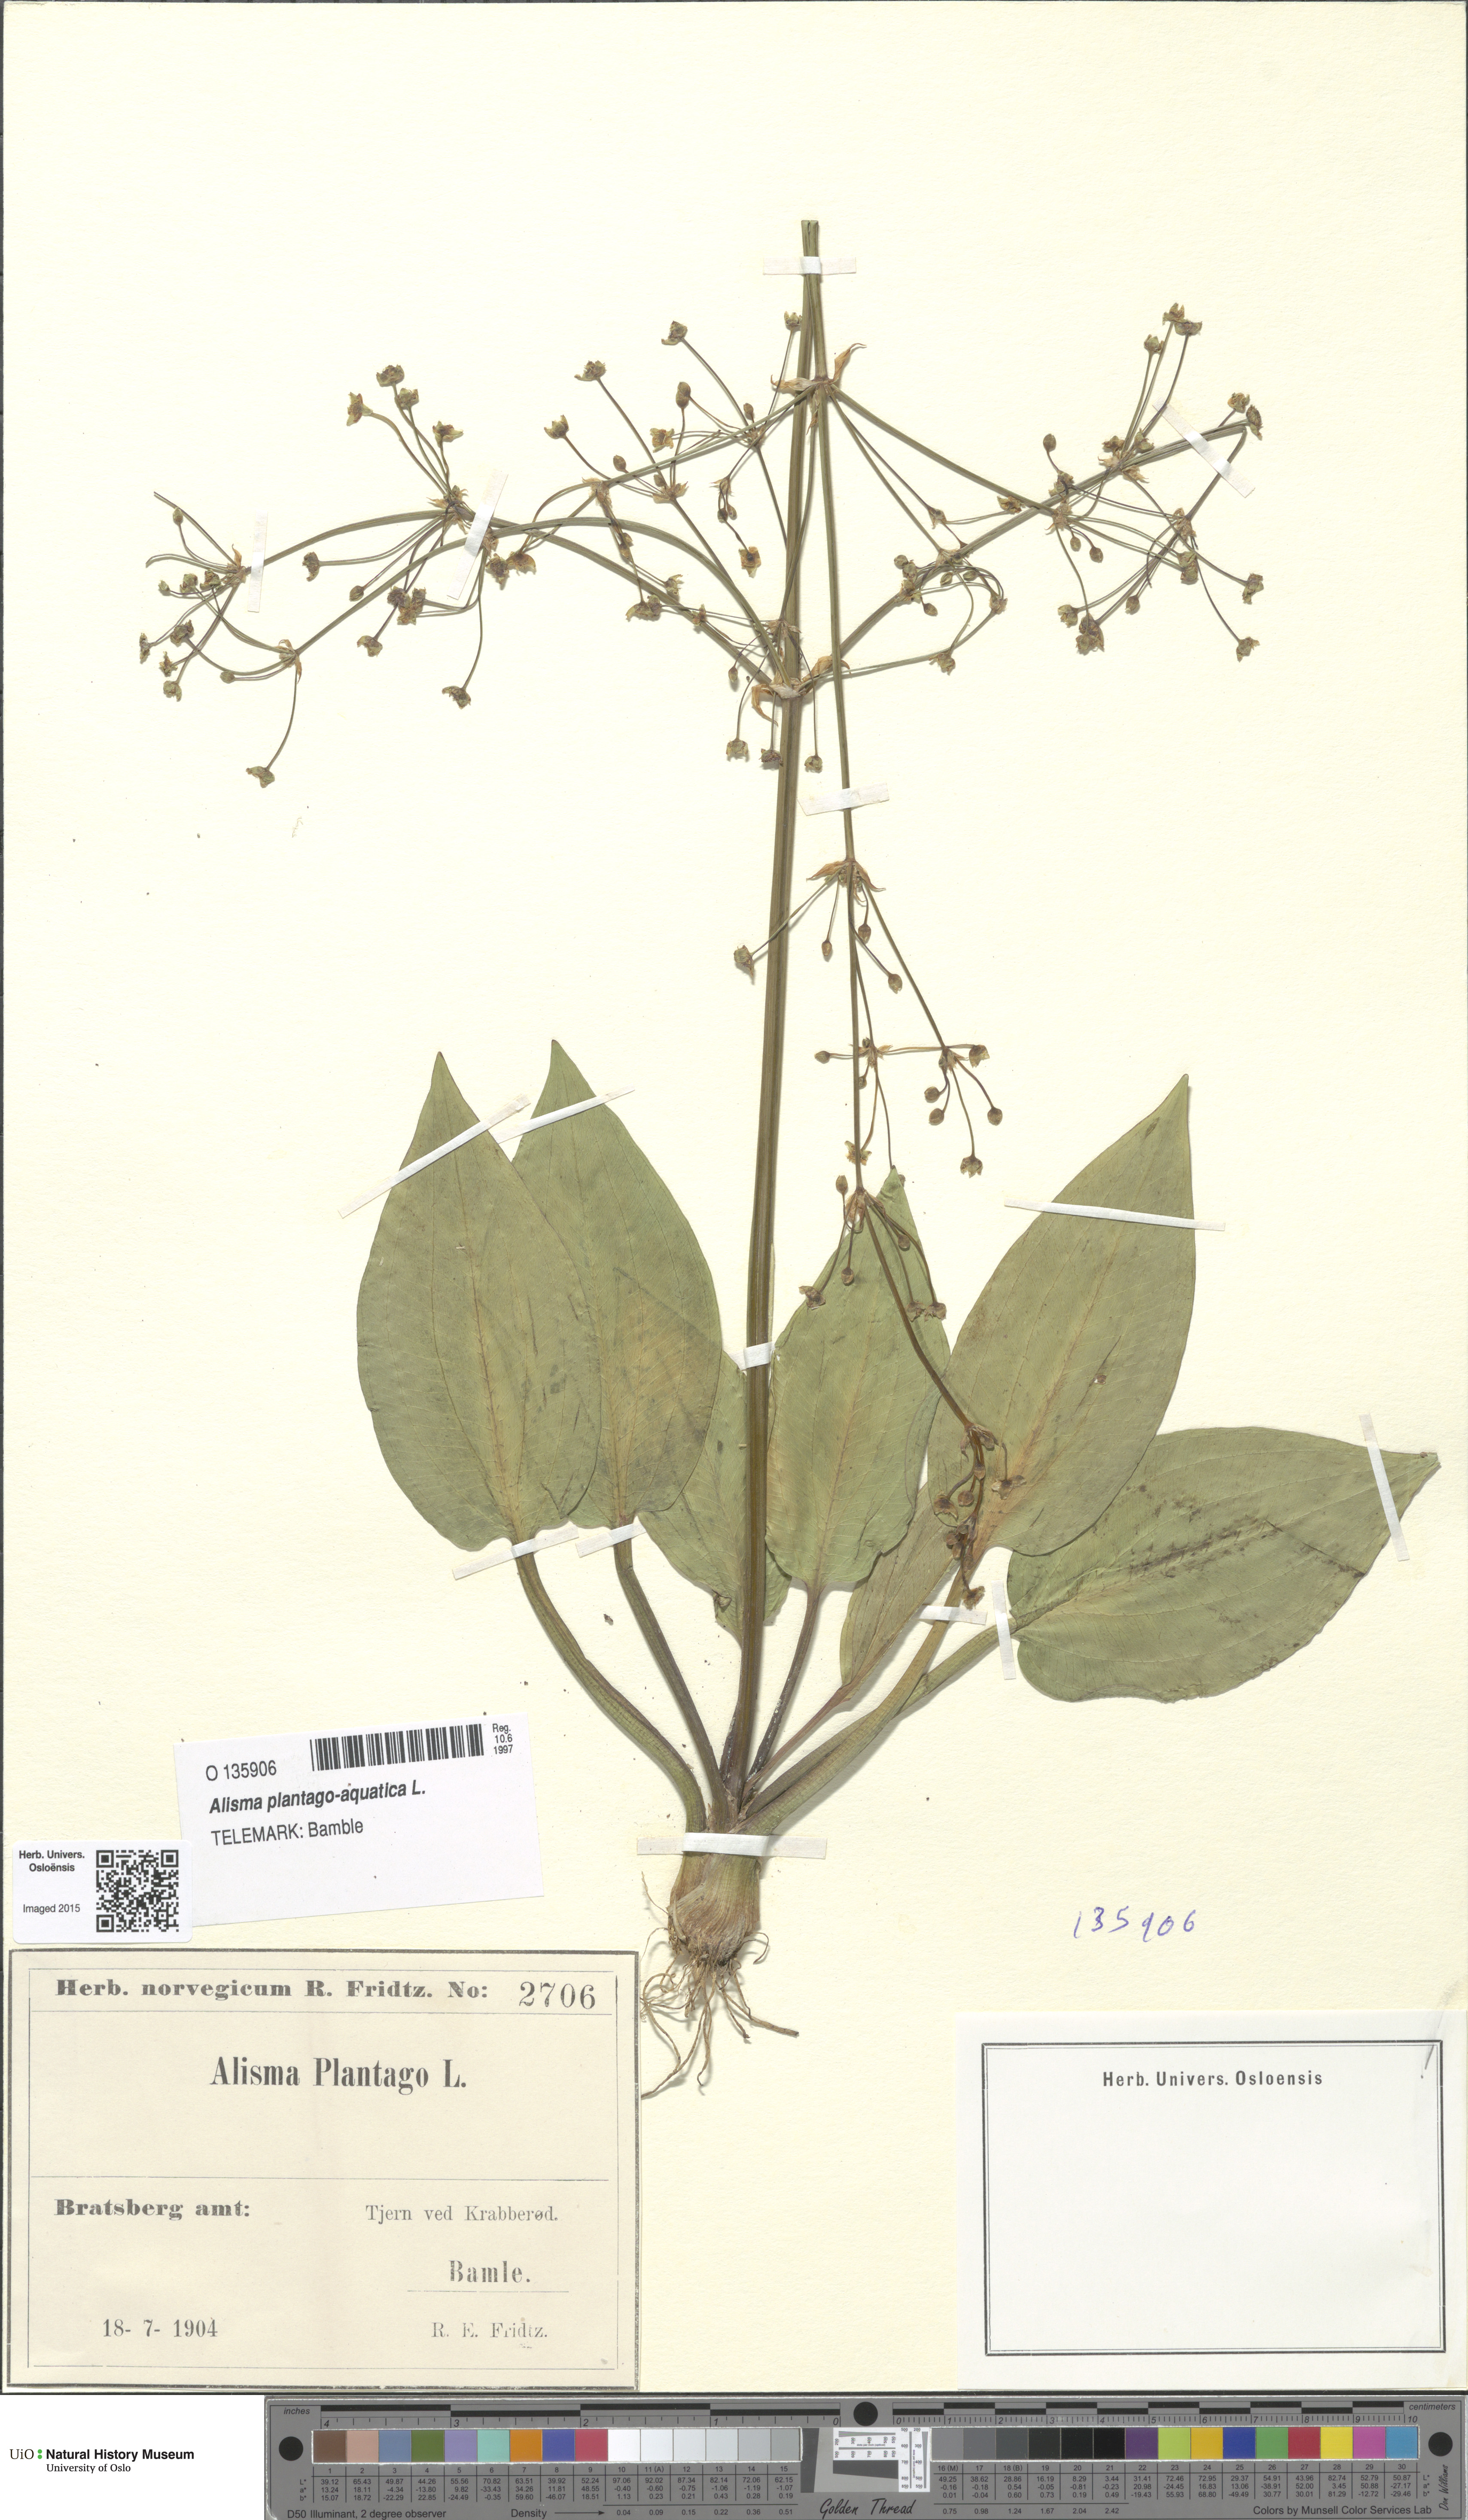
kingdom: Plantae
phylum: Tracheophyta
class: Liliopsida
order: Alismatales
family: Alismataceae
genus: Alisma
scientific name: Alisma plantago-aquatica
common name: Water-plantain
